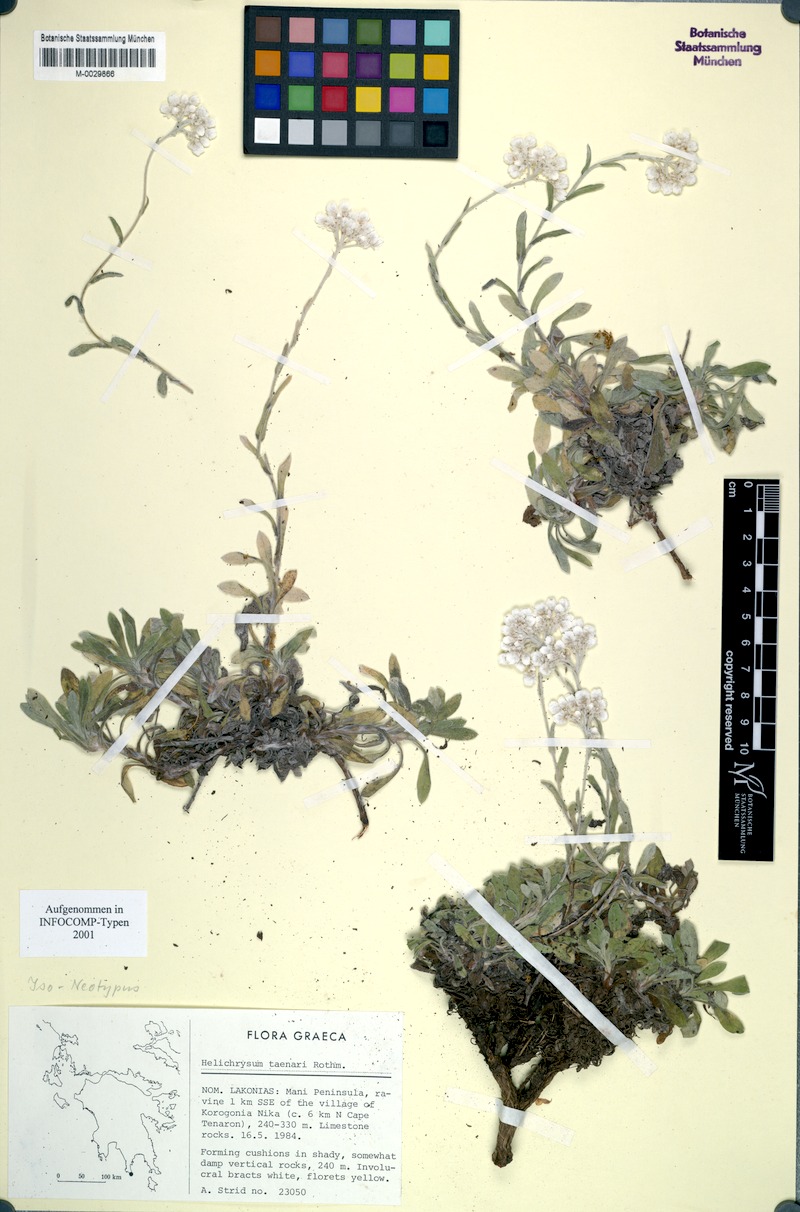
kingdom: Plantae
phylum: Tracheophyta
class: Magnoliopsida
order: Asterales
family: Asteraceae
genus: Helichrysum
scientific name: Helichrysum taenari
